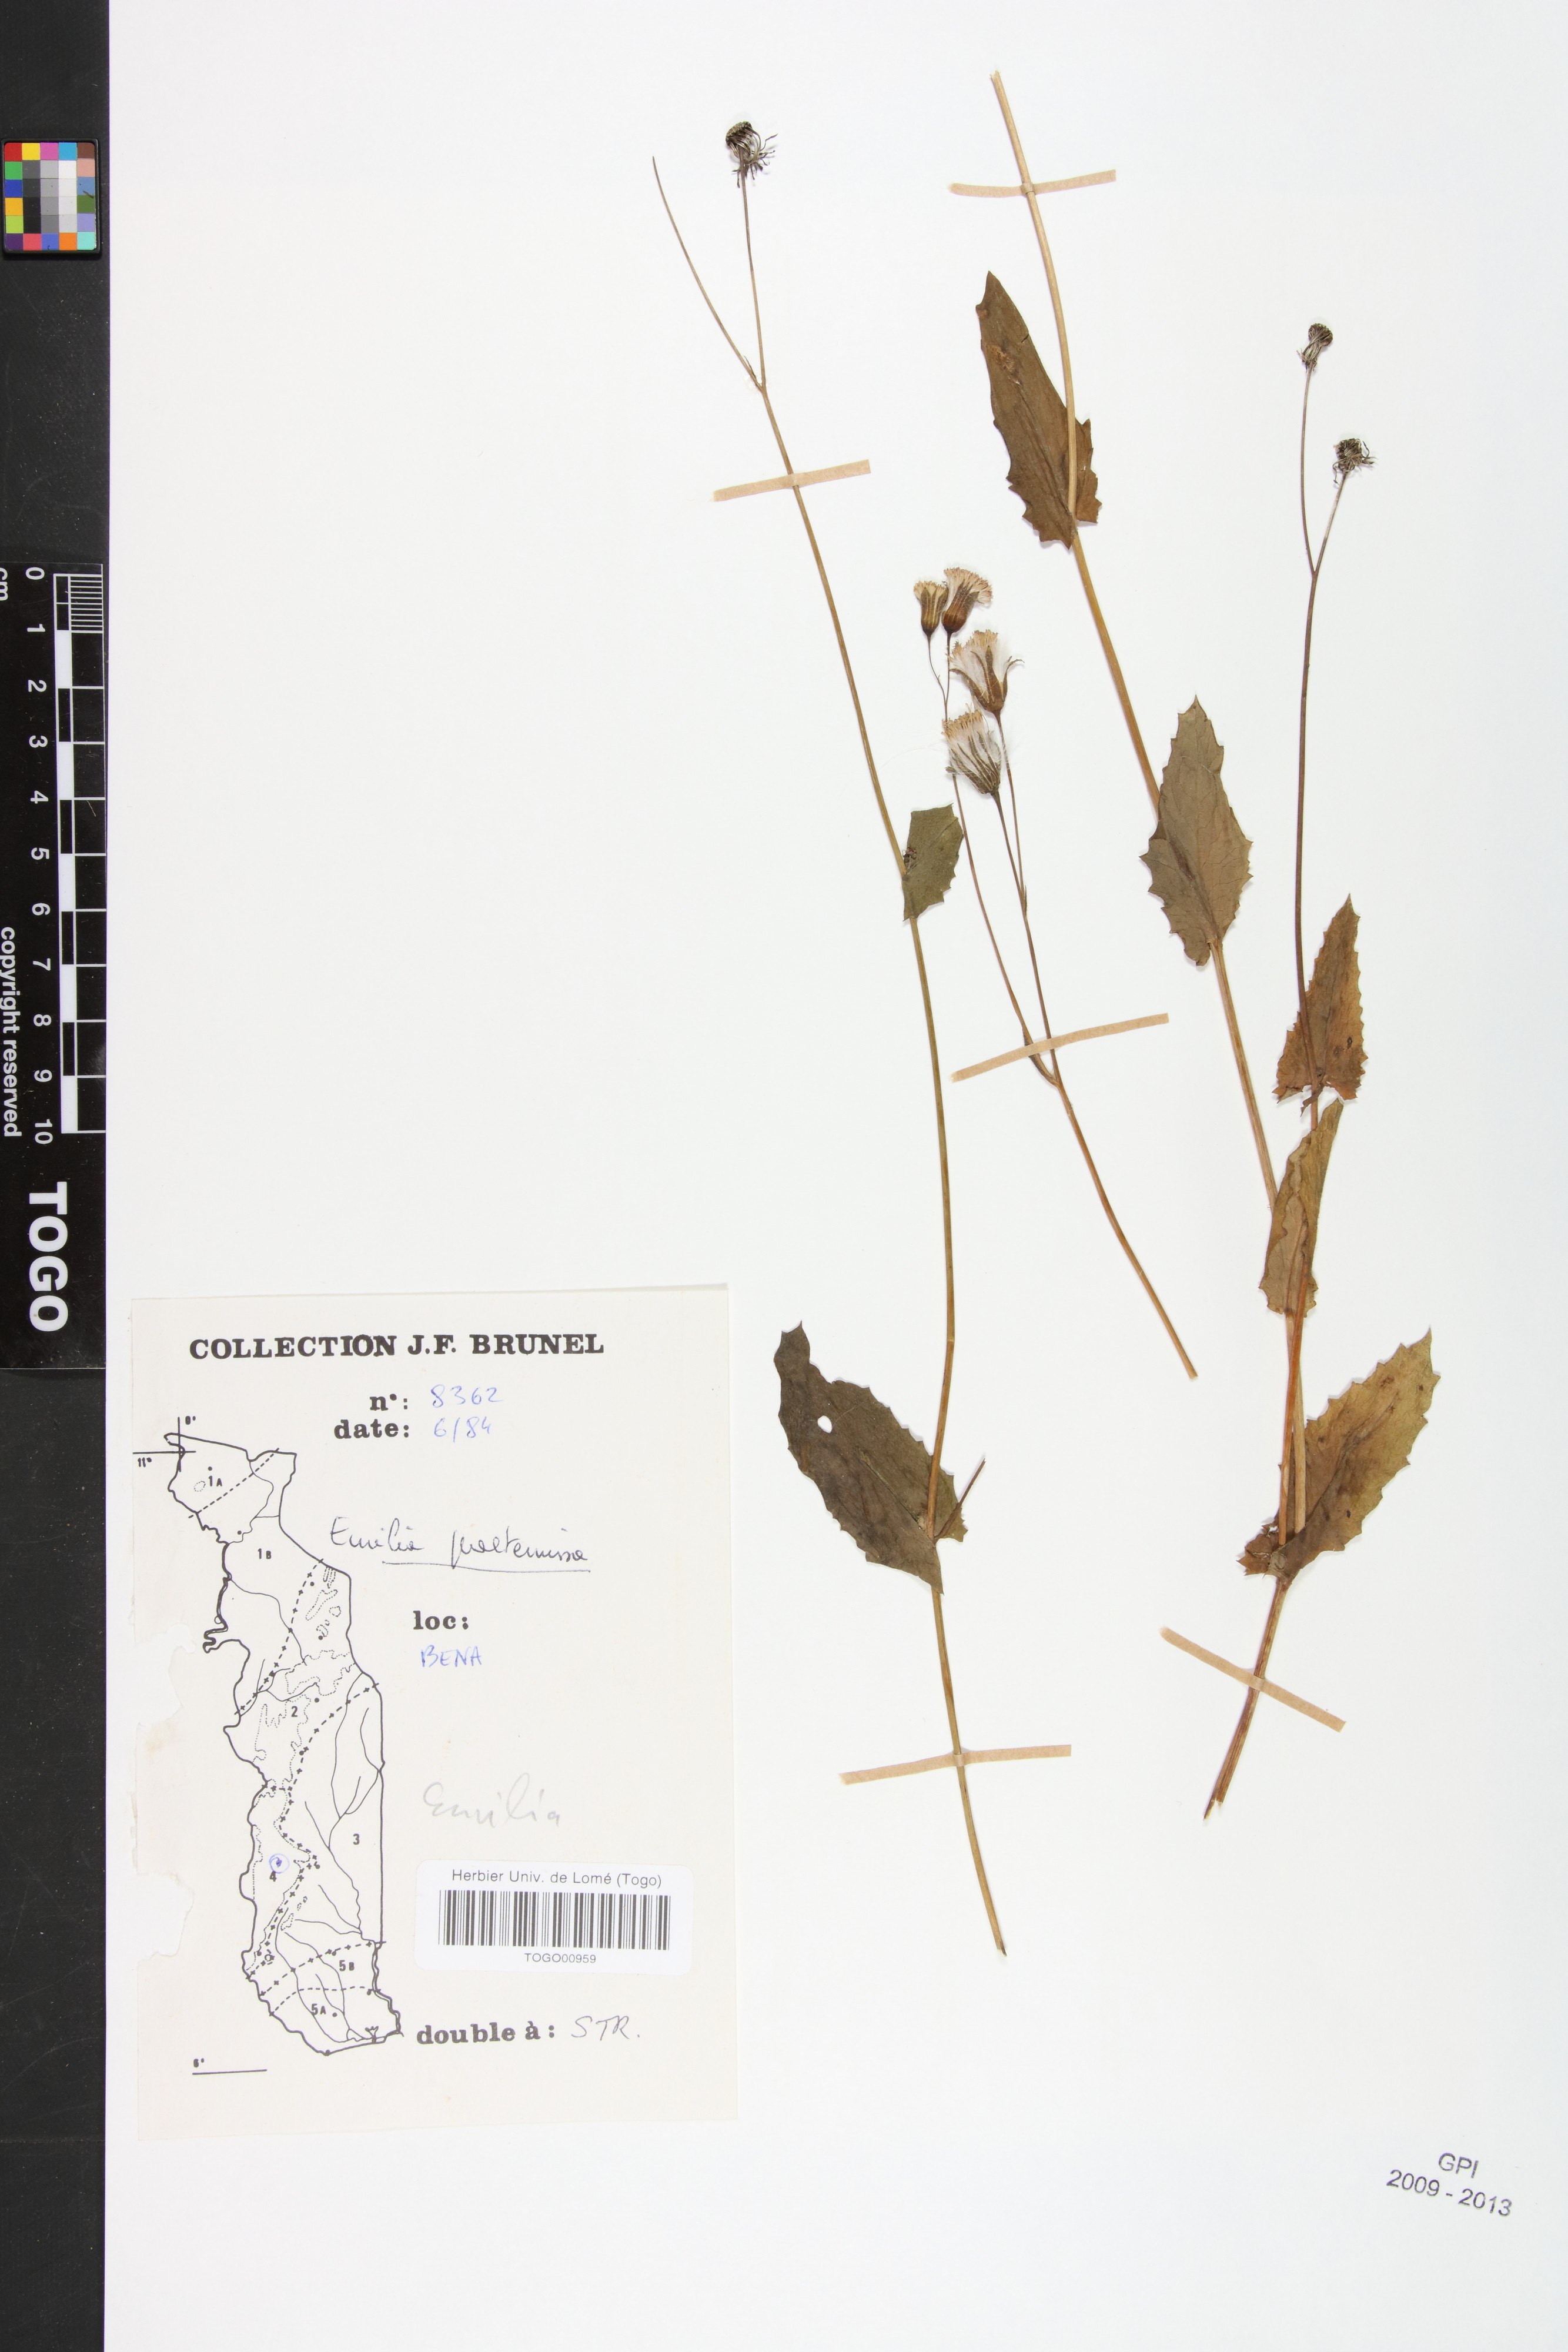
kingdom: Plantae
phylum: Tracheophyta
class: Magnoliopsida
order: Asterales
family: Asteraceae
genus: Emilia
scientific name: Emilia praetermissa
